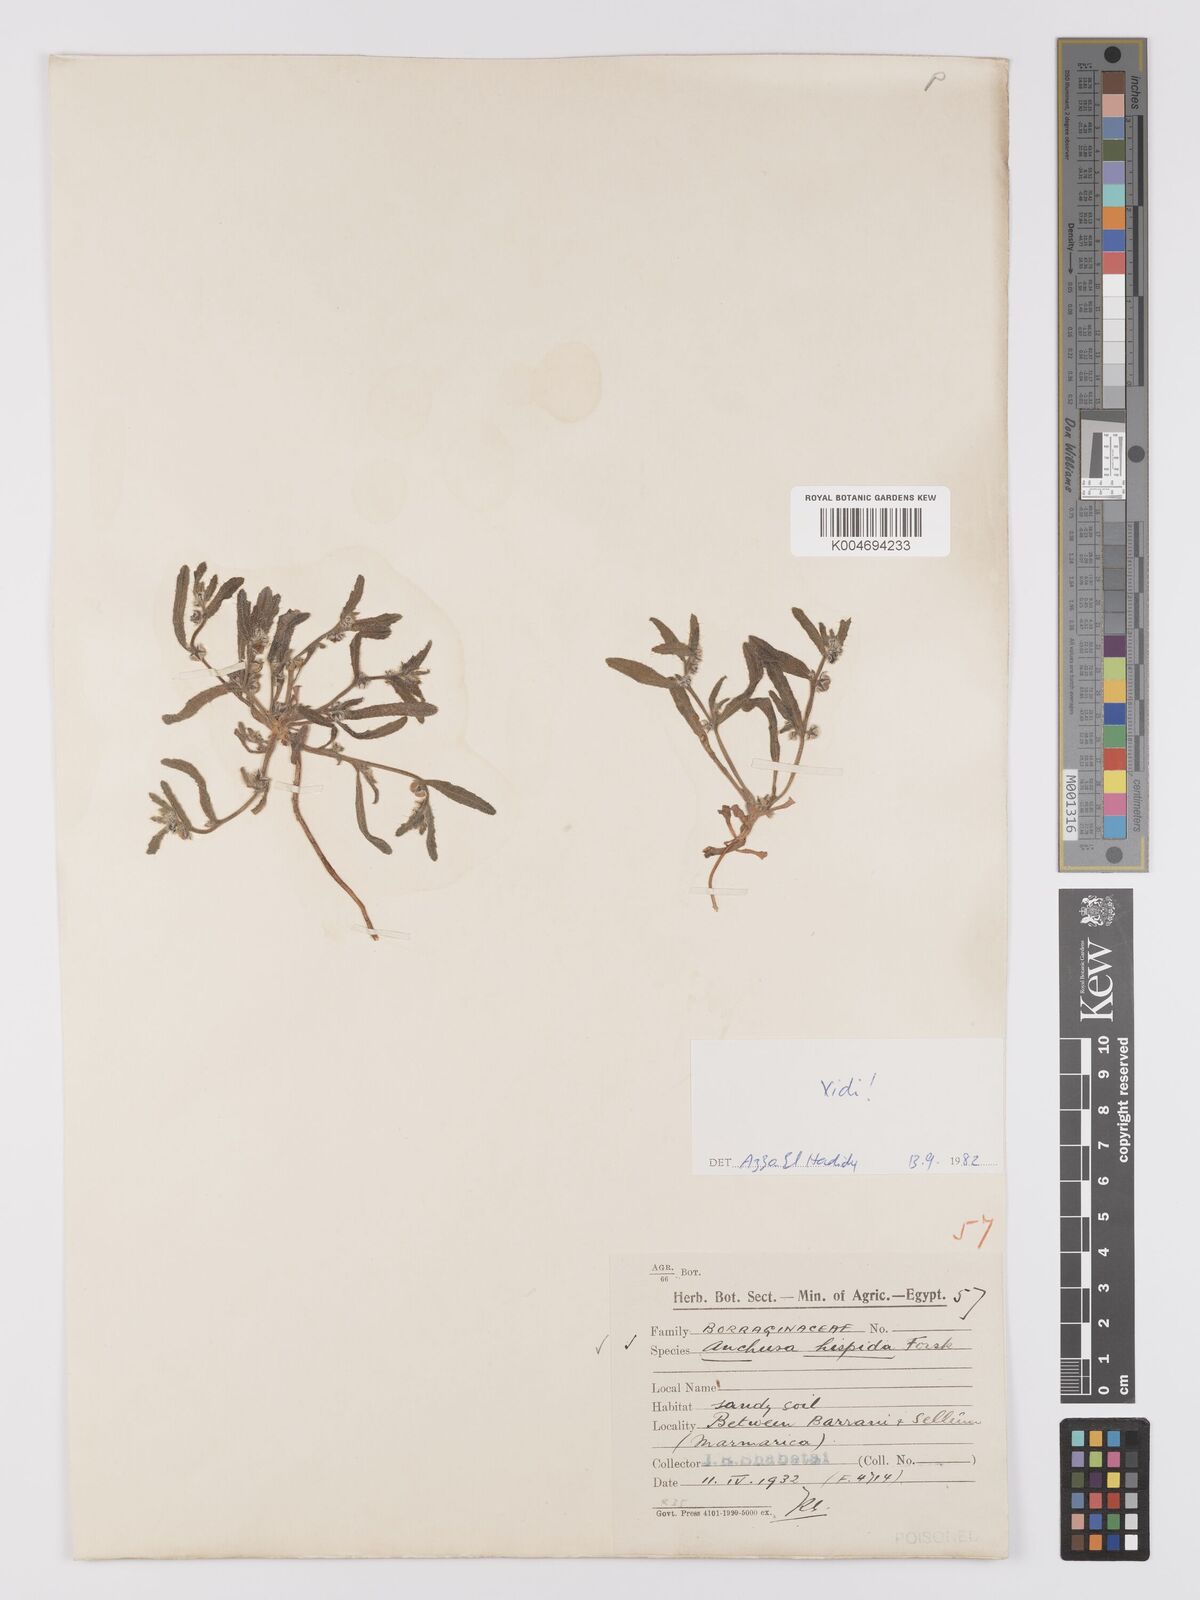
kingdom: Plantae
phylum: Tracheophyta
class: Magnoliopsida
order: Boraginales
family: Boraginaceae
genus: Gastrocotyle
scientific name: Gastrocotyle hispida
